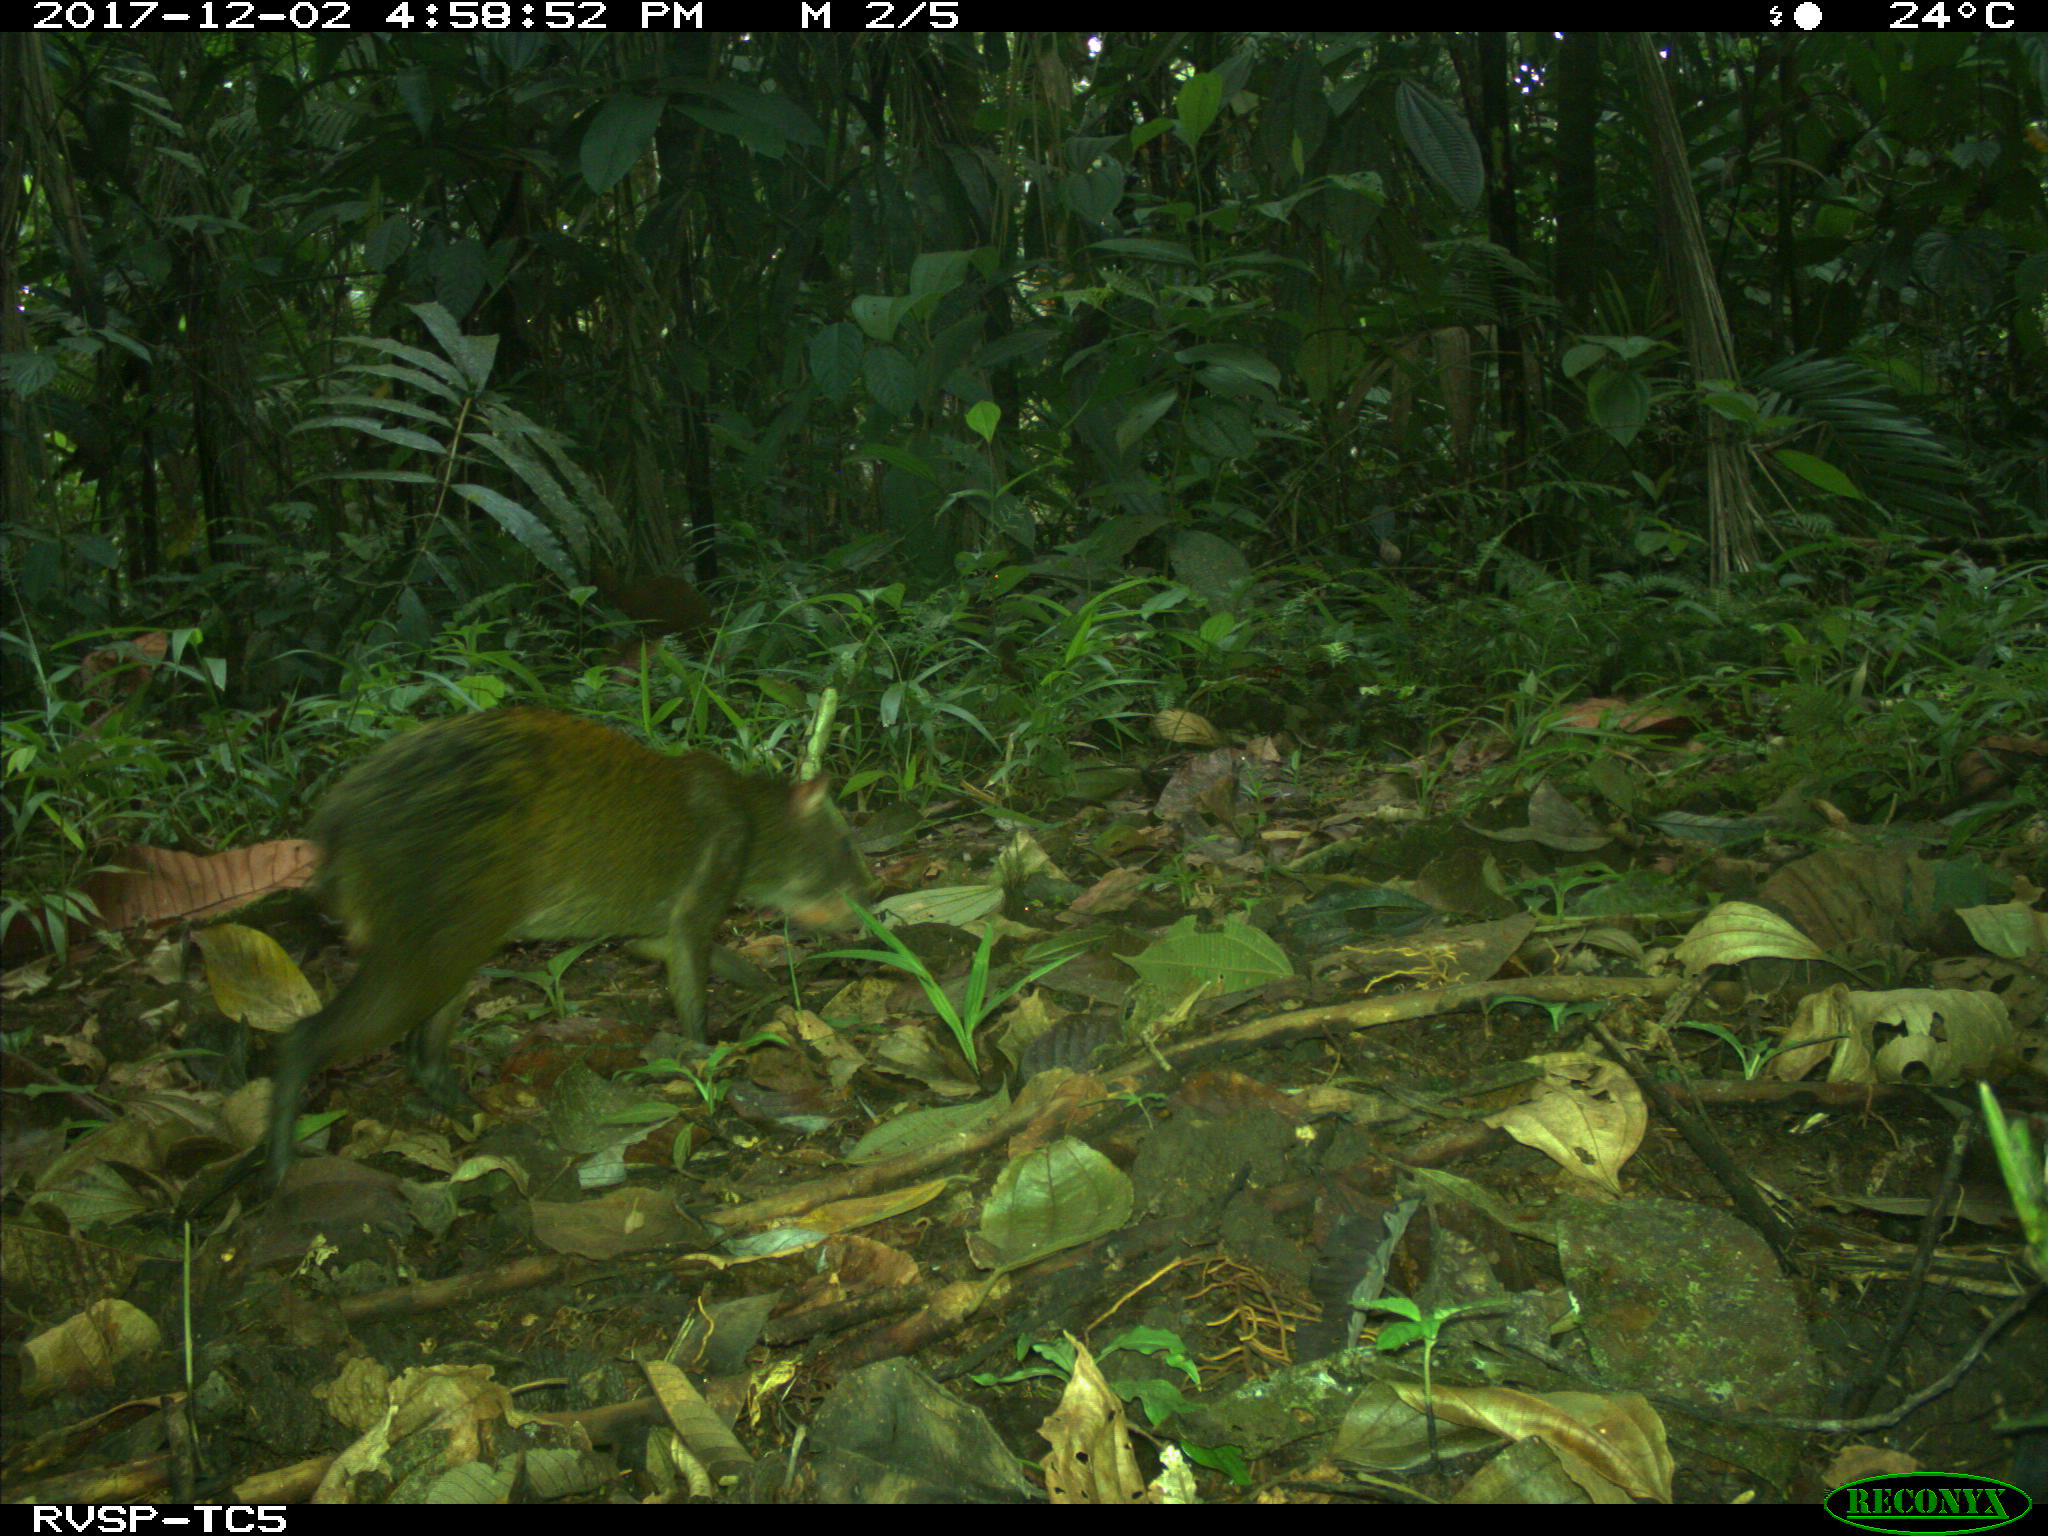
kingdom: Animalia
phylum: Chordata
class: Mammalia
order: Rodentia
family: Dasyproctidae
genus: Dasyprocta
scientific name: Dasyprocta punctata
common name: Central american agouti
